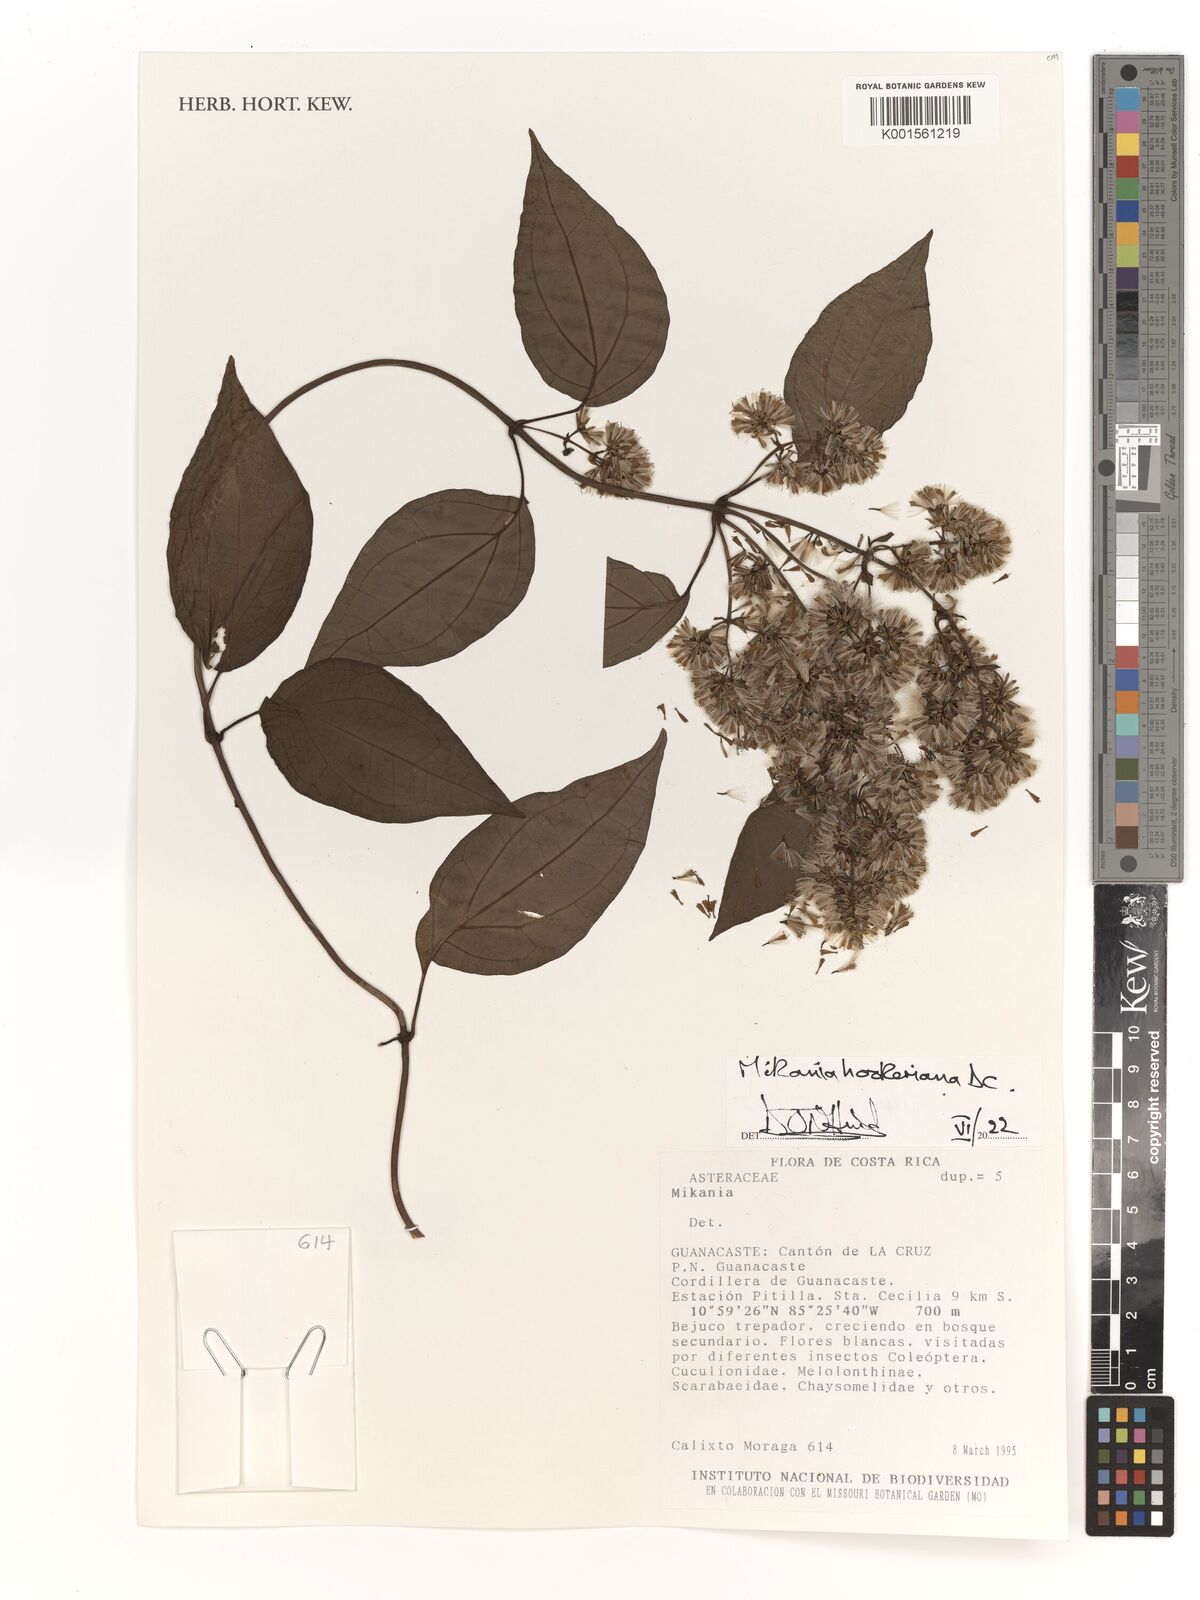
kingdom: Plantae
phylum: Tracheophyta
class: Magnoliopsida
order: Asterales
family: Asteraceae
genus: Mikania
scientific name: Mikania hookeriana
